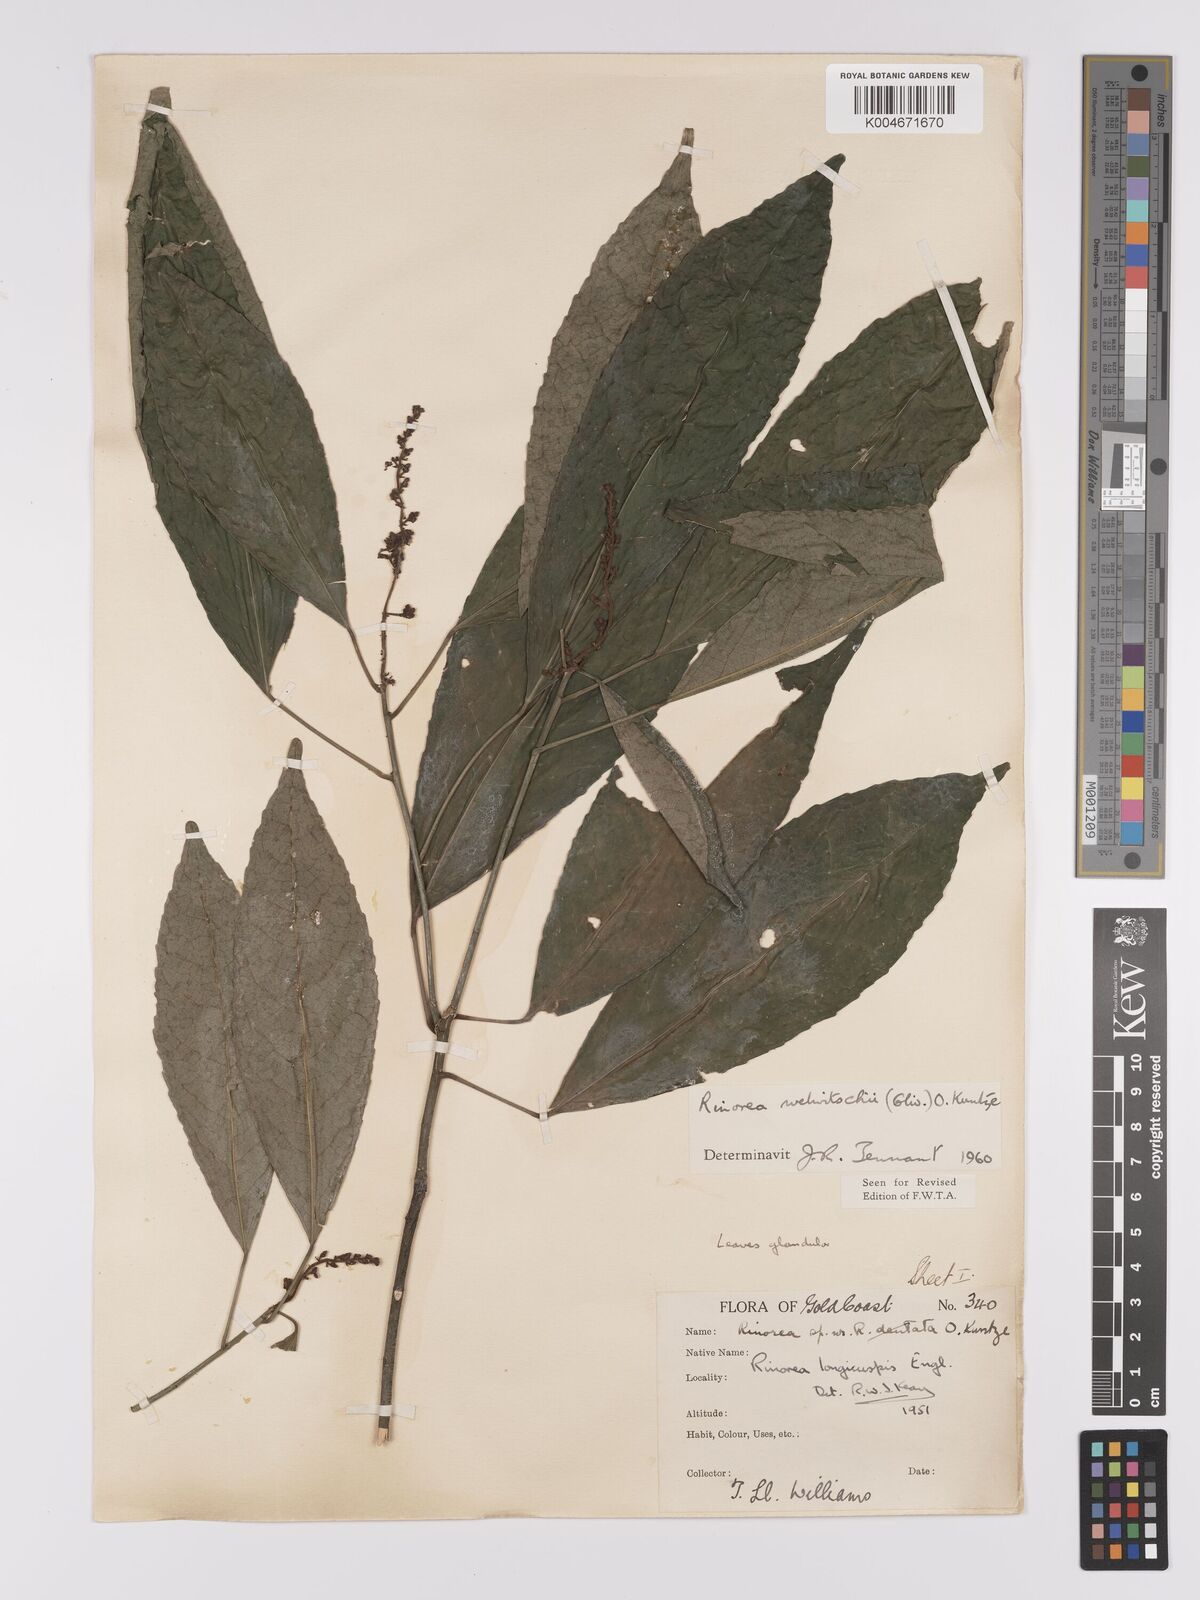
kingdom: Plantae
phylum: Tracheophyta
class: Magnoliopsida
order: Malpighiales
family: Violaceae
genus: Rinorea
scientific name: Rinorea welwitschii
